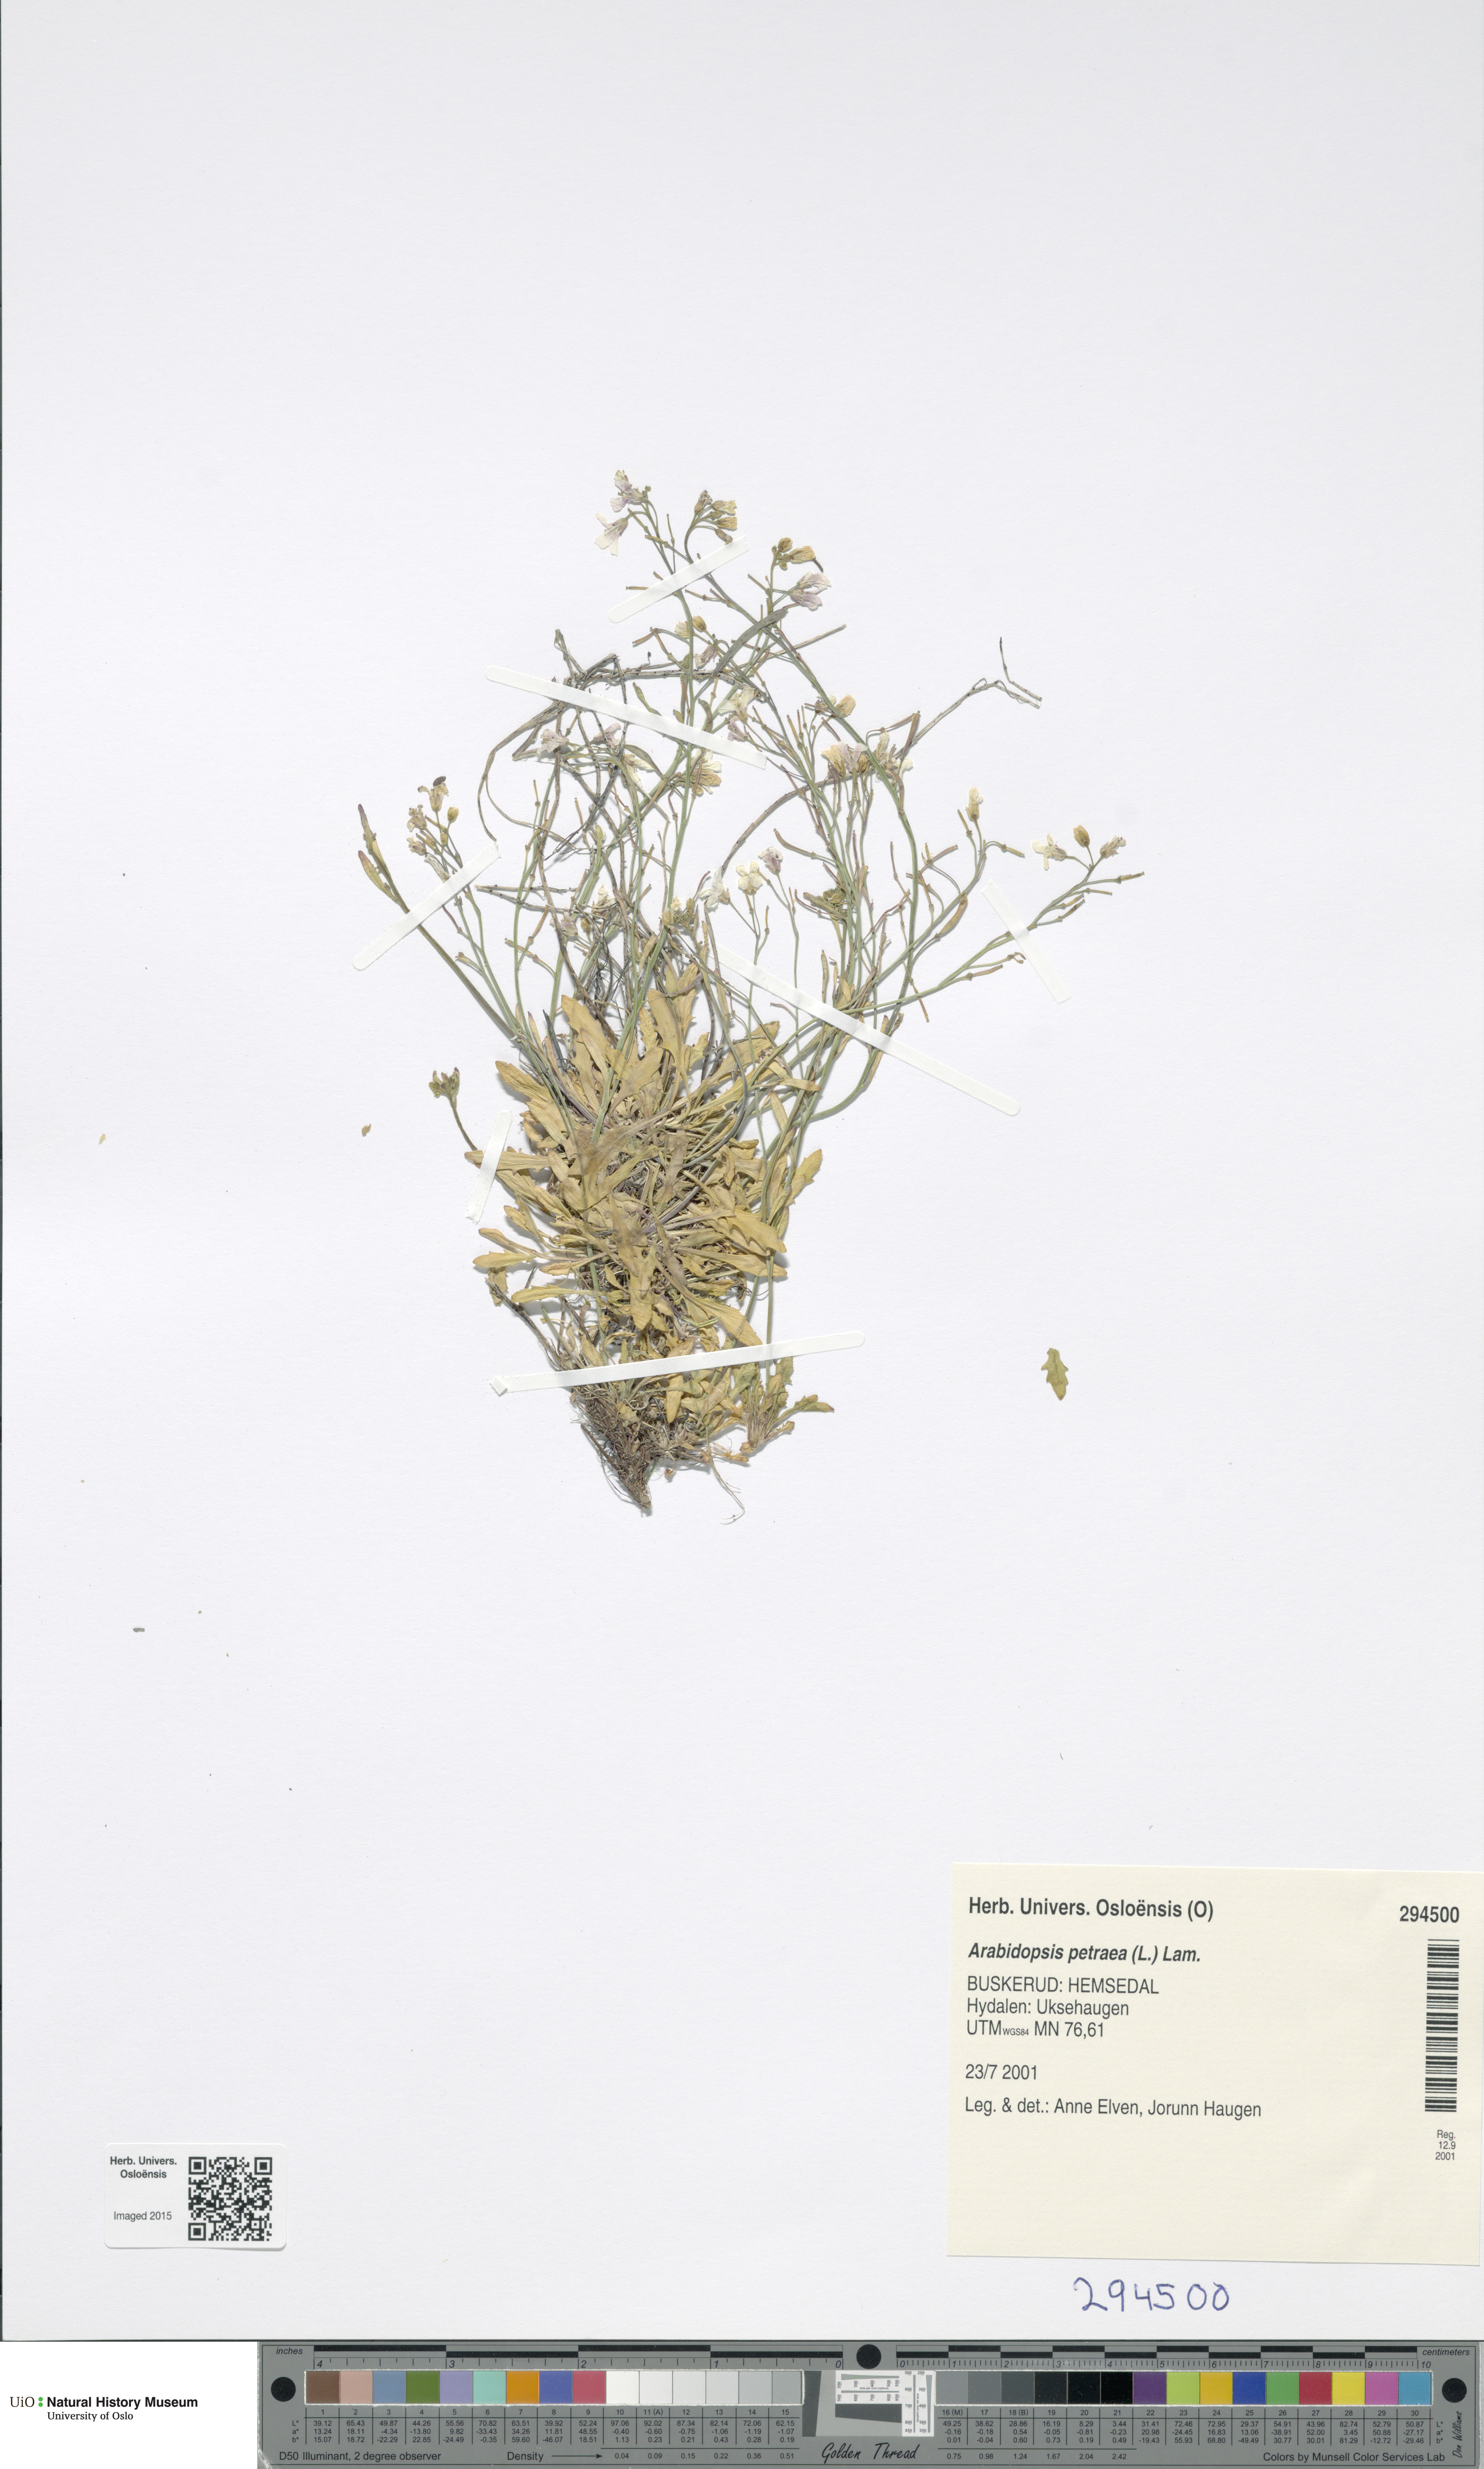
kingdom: Plantae
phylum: Tracheophyta
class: Magnoliopsida
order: Brassicales
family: Brassicaceae
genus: Arabidopsis
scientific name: Arabidopsis petraea
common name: Northern rock-cress
